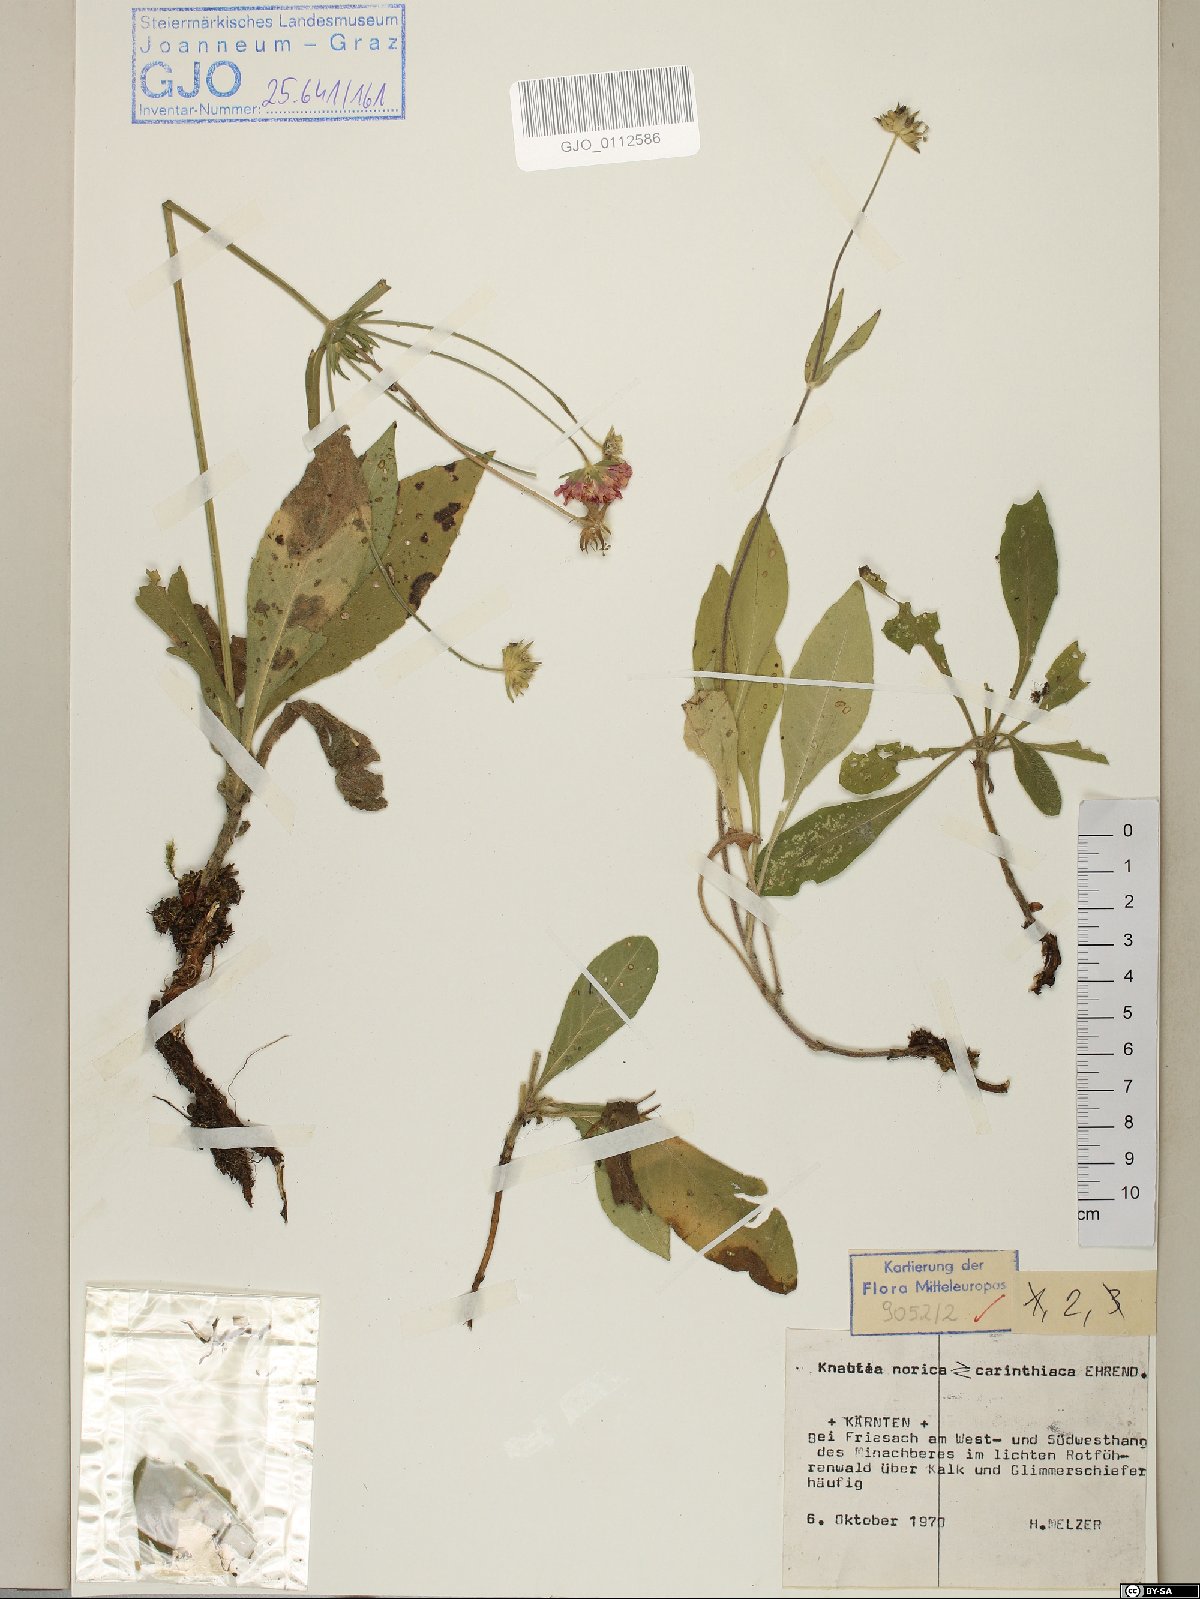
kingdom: Plantae
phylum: Tracheophyta
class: Magnoliopsida
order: Dipsacales
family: Dipsacaceae
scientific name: Dipsacaceae
